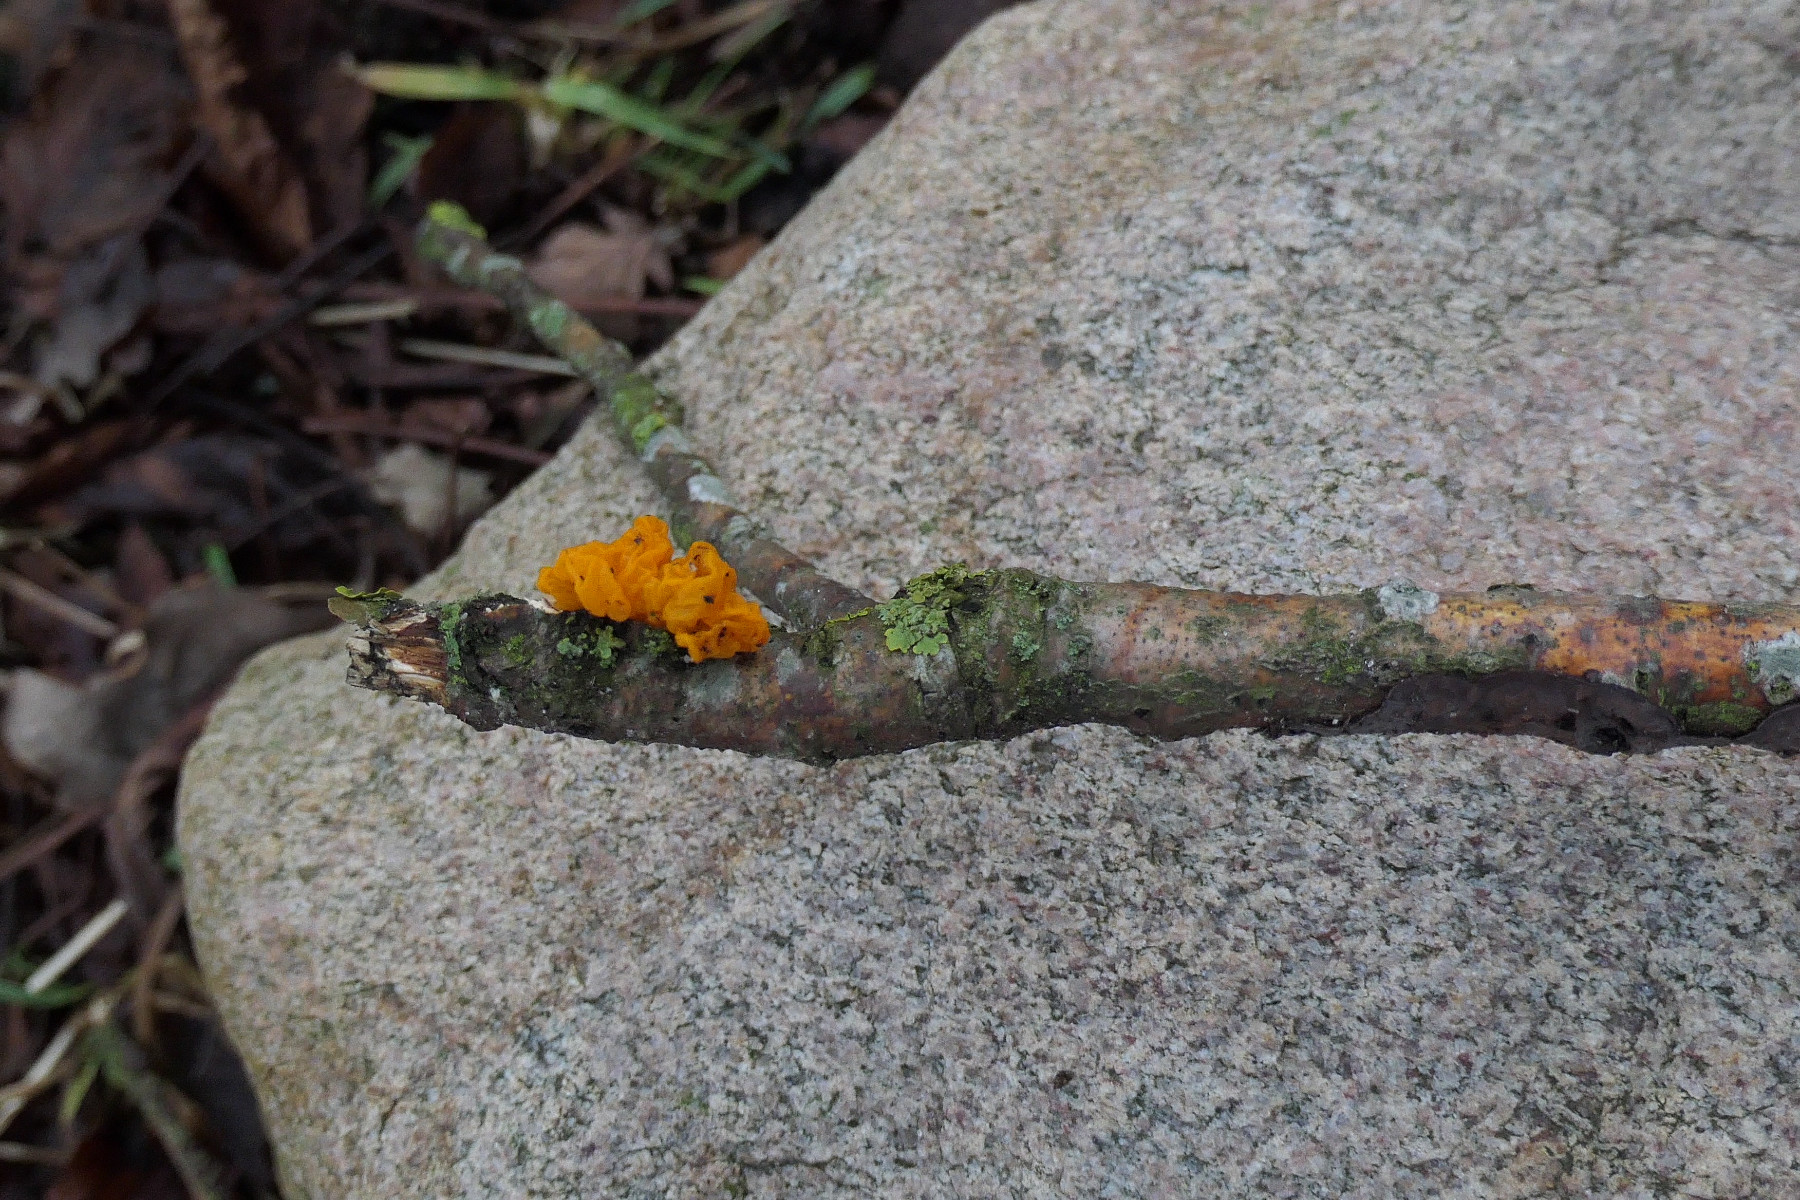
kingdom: Fungi
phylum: Basidiomycota
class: Tremellomycetes
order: Tremellales
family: Tremellaceae
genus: Tremella
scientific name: Tremella mesenterica
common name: gul bævresvamp
